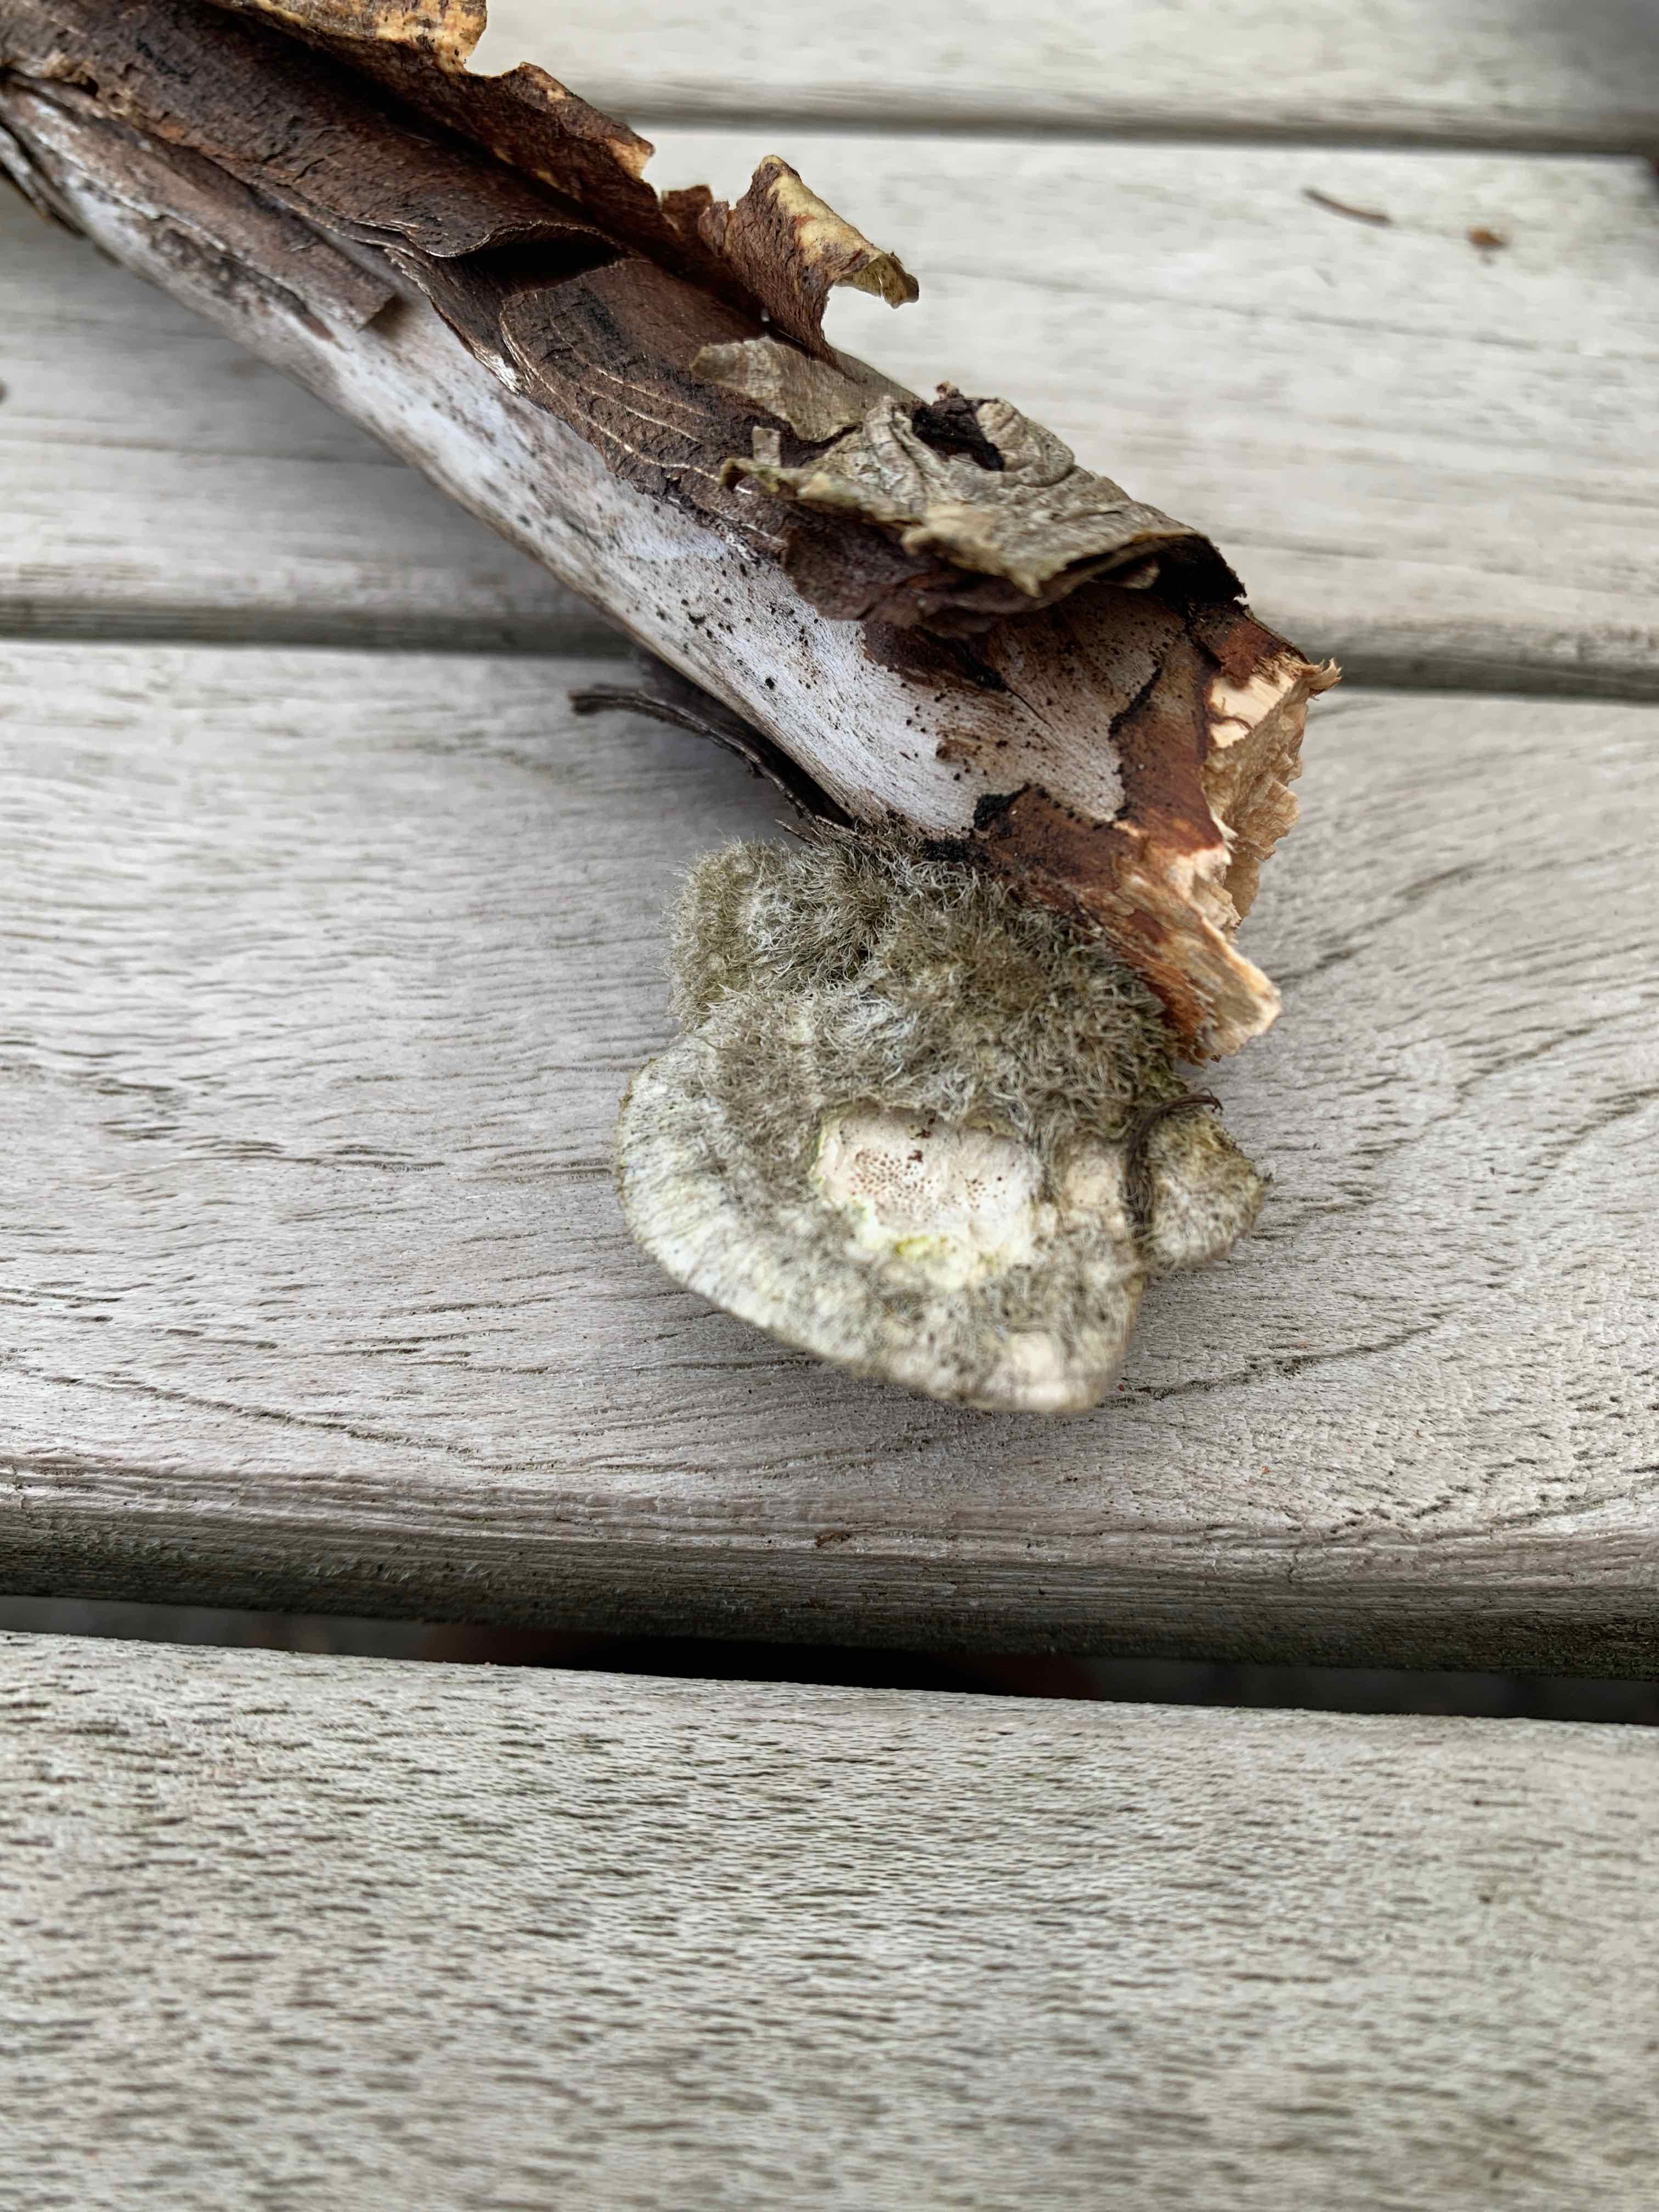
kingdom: Fungi
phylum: Basidiomycota
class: Agaricomycetes
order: Polyporales
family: Polyporaceae
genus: Trametes
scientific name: Trametes hirsuta
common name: håret læderporesvamp
